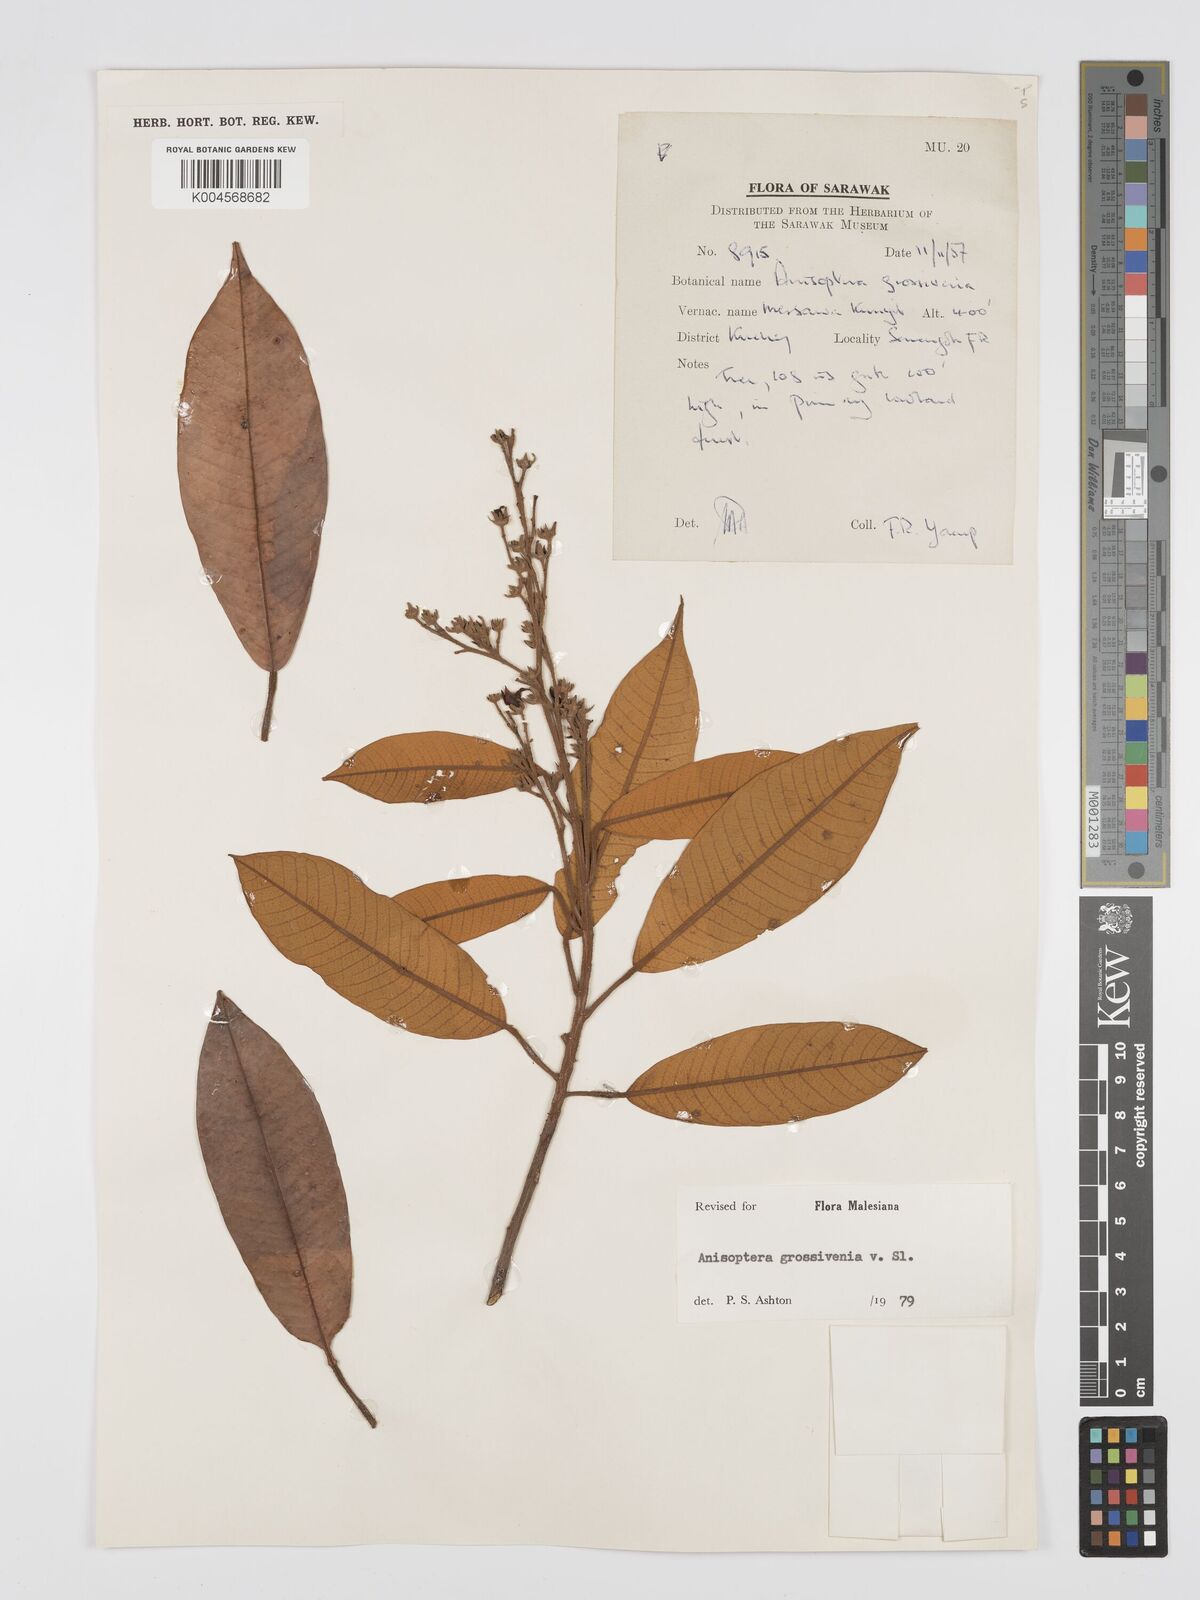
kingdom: Plantae
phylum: Tracheophyta
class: Magnoliopsida
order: Malvales
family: Dipterocarpaceae
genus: Anisoptera
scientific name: Anisoptera grossivenia
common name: Krabak
